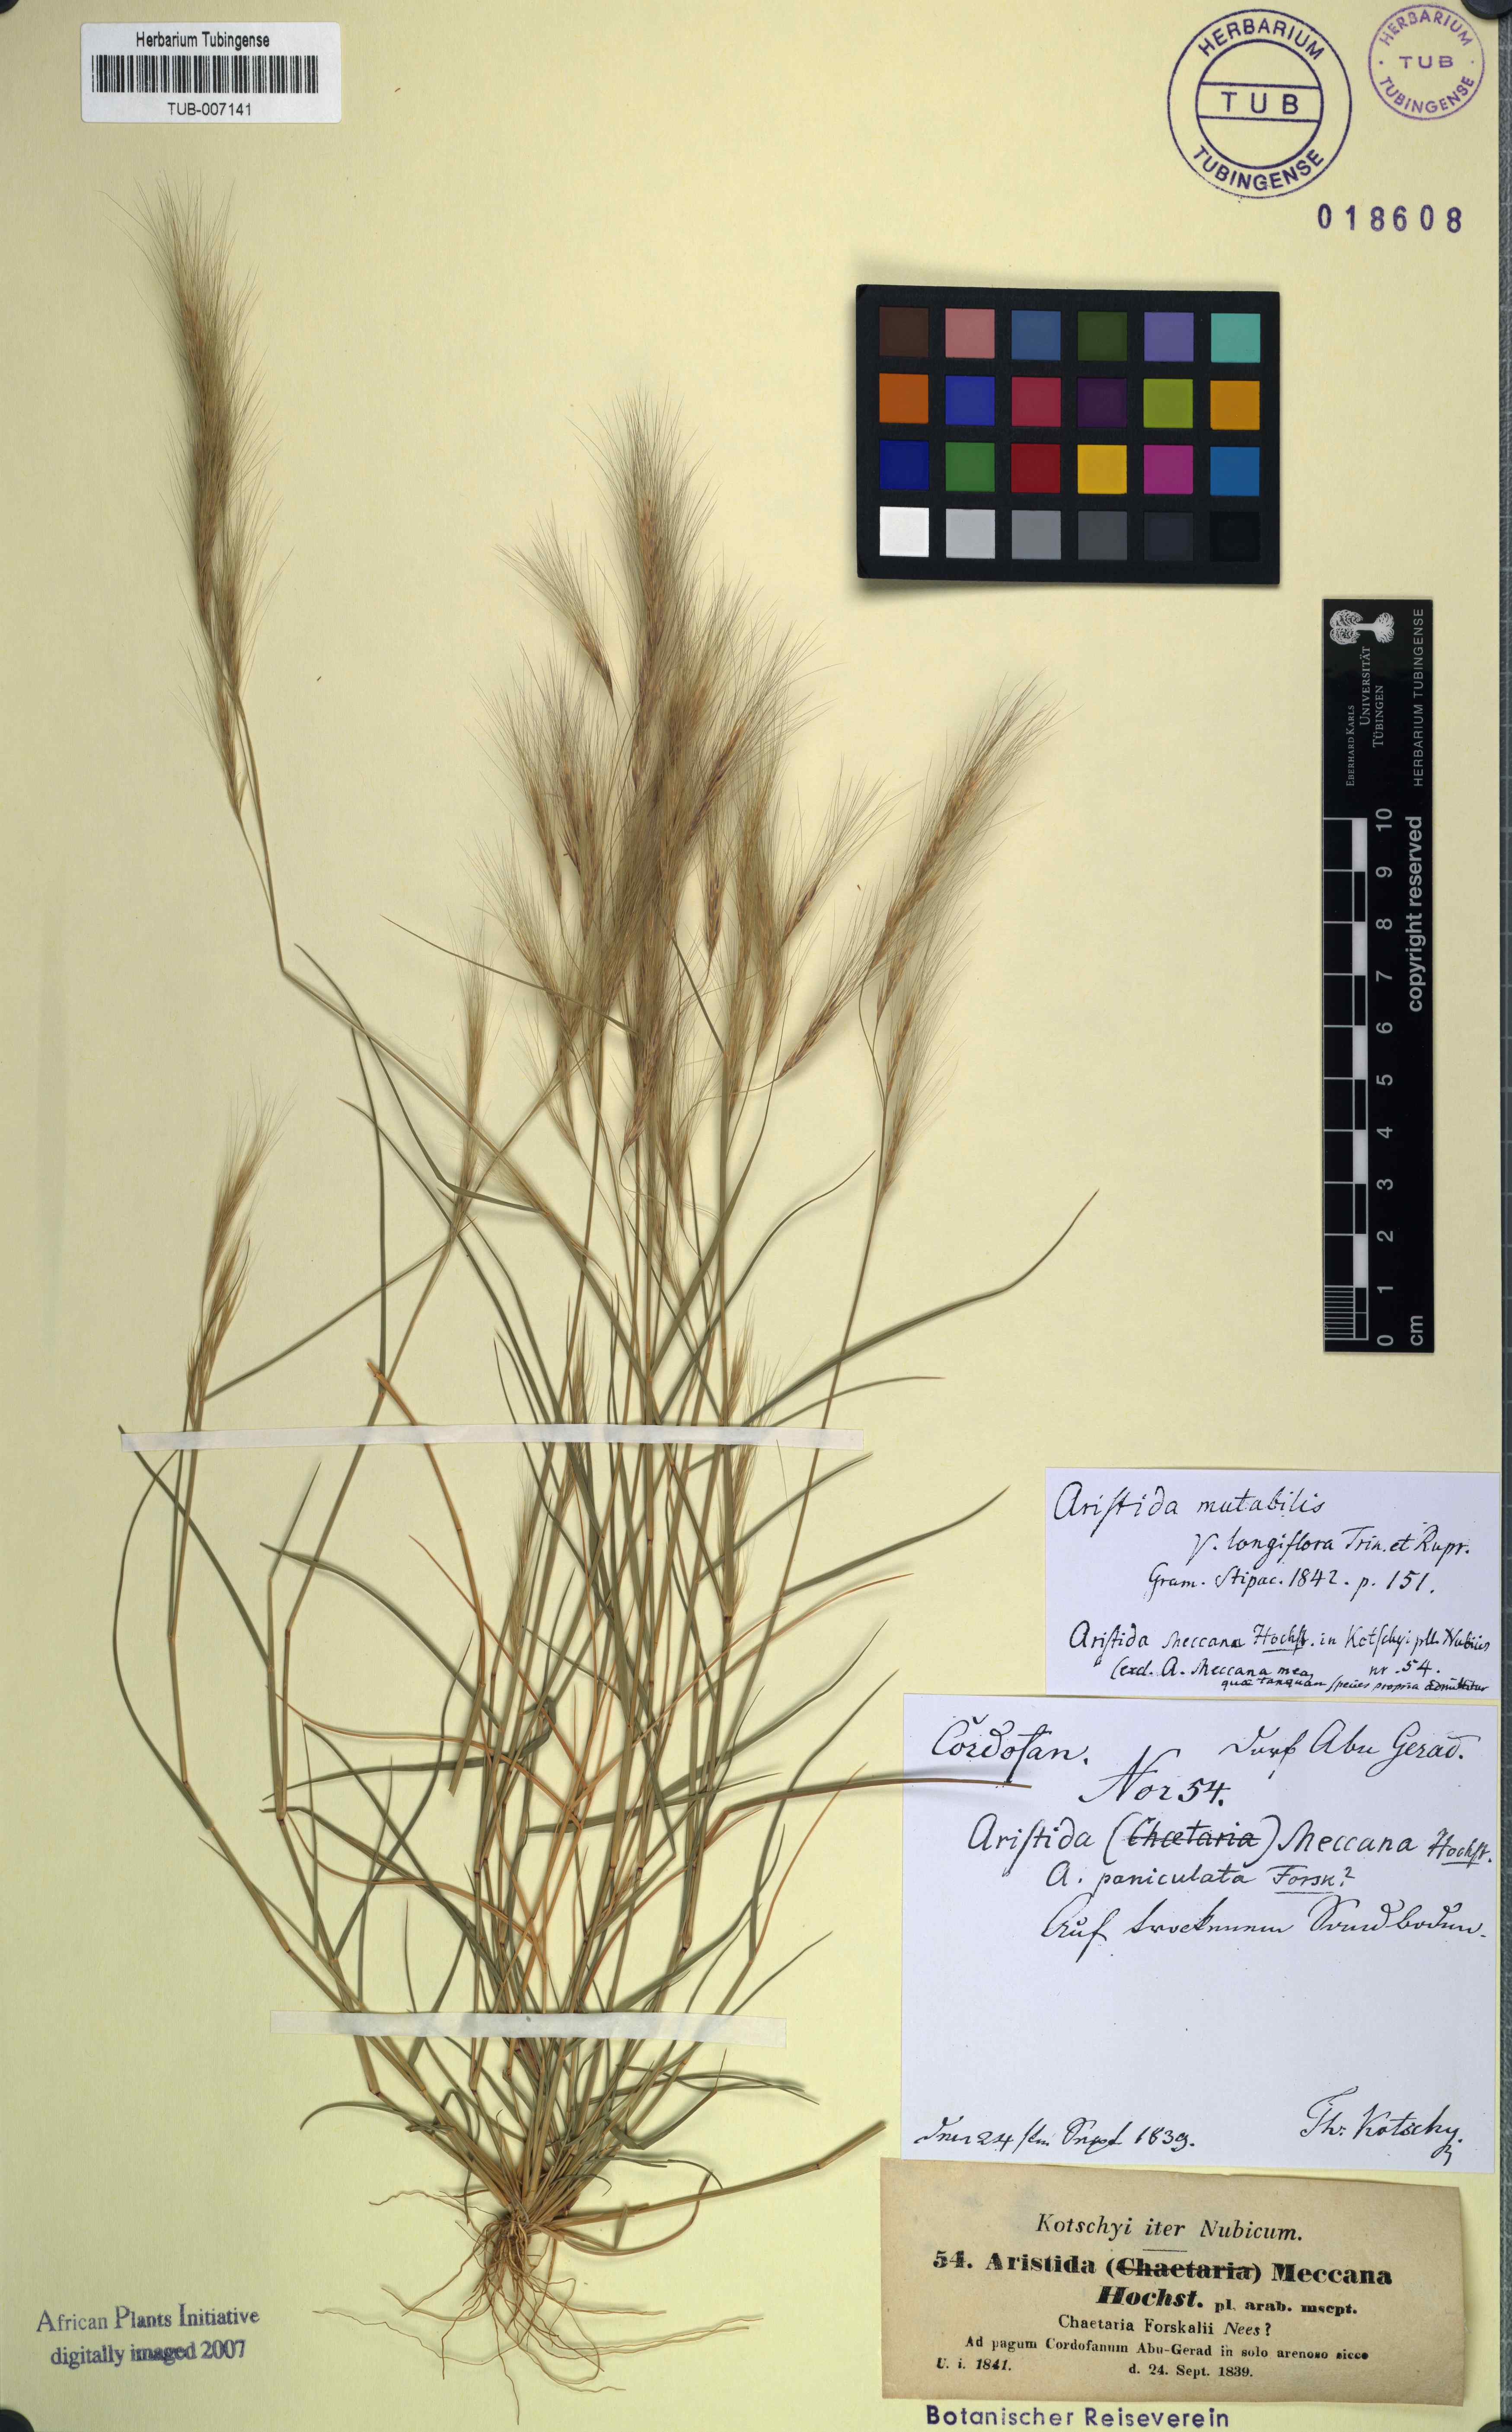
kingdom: Plantae
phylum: Tracheophyta
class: Liliopsida
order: Poales
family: Poaceae
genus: Aristida
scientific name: Aristida mutabilis
